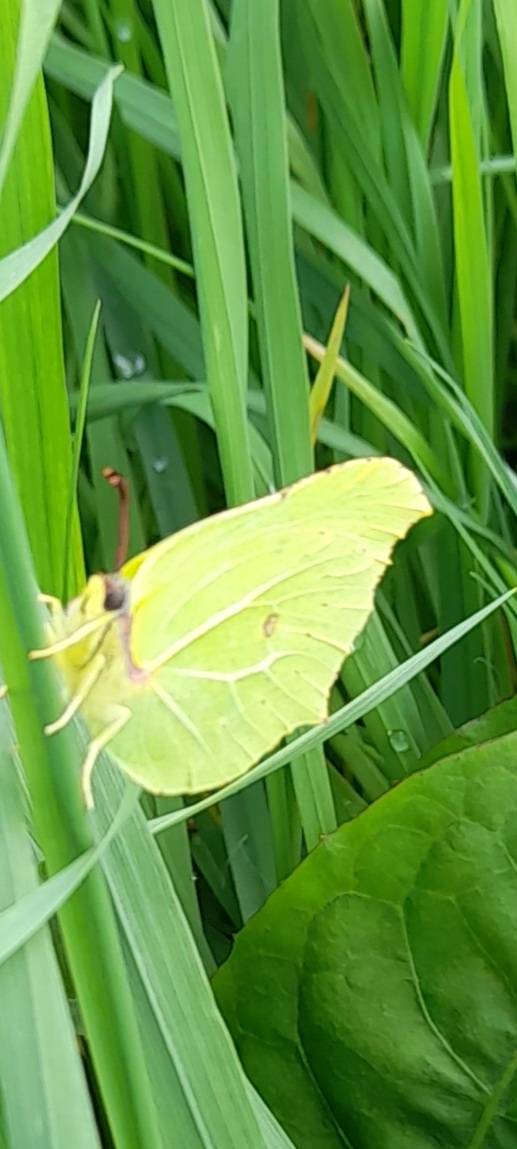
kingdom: Animalia
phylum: Arthropoda
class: Insecta
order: Lepidoptera
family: Pieridae
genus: Gonepteryx
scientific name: Gonepteryx rhamni
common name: Citronsommerfugl
